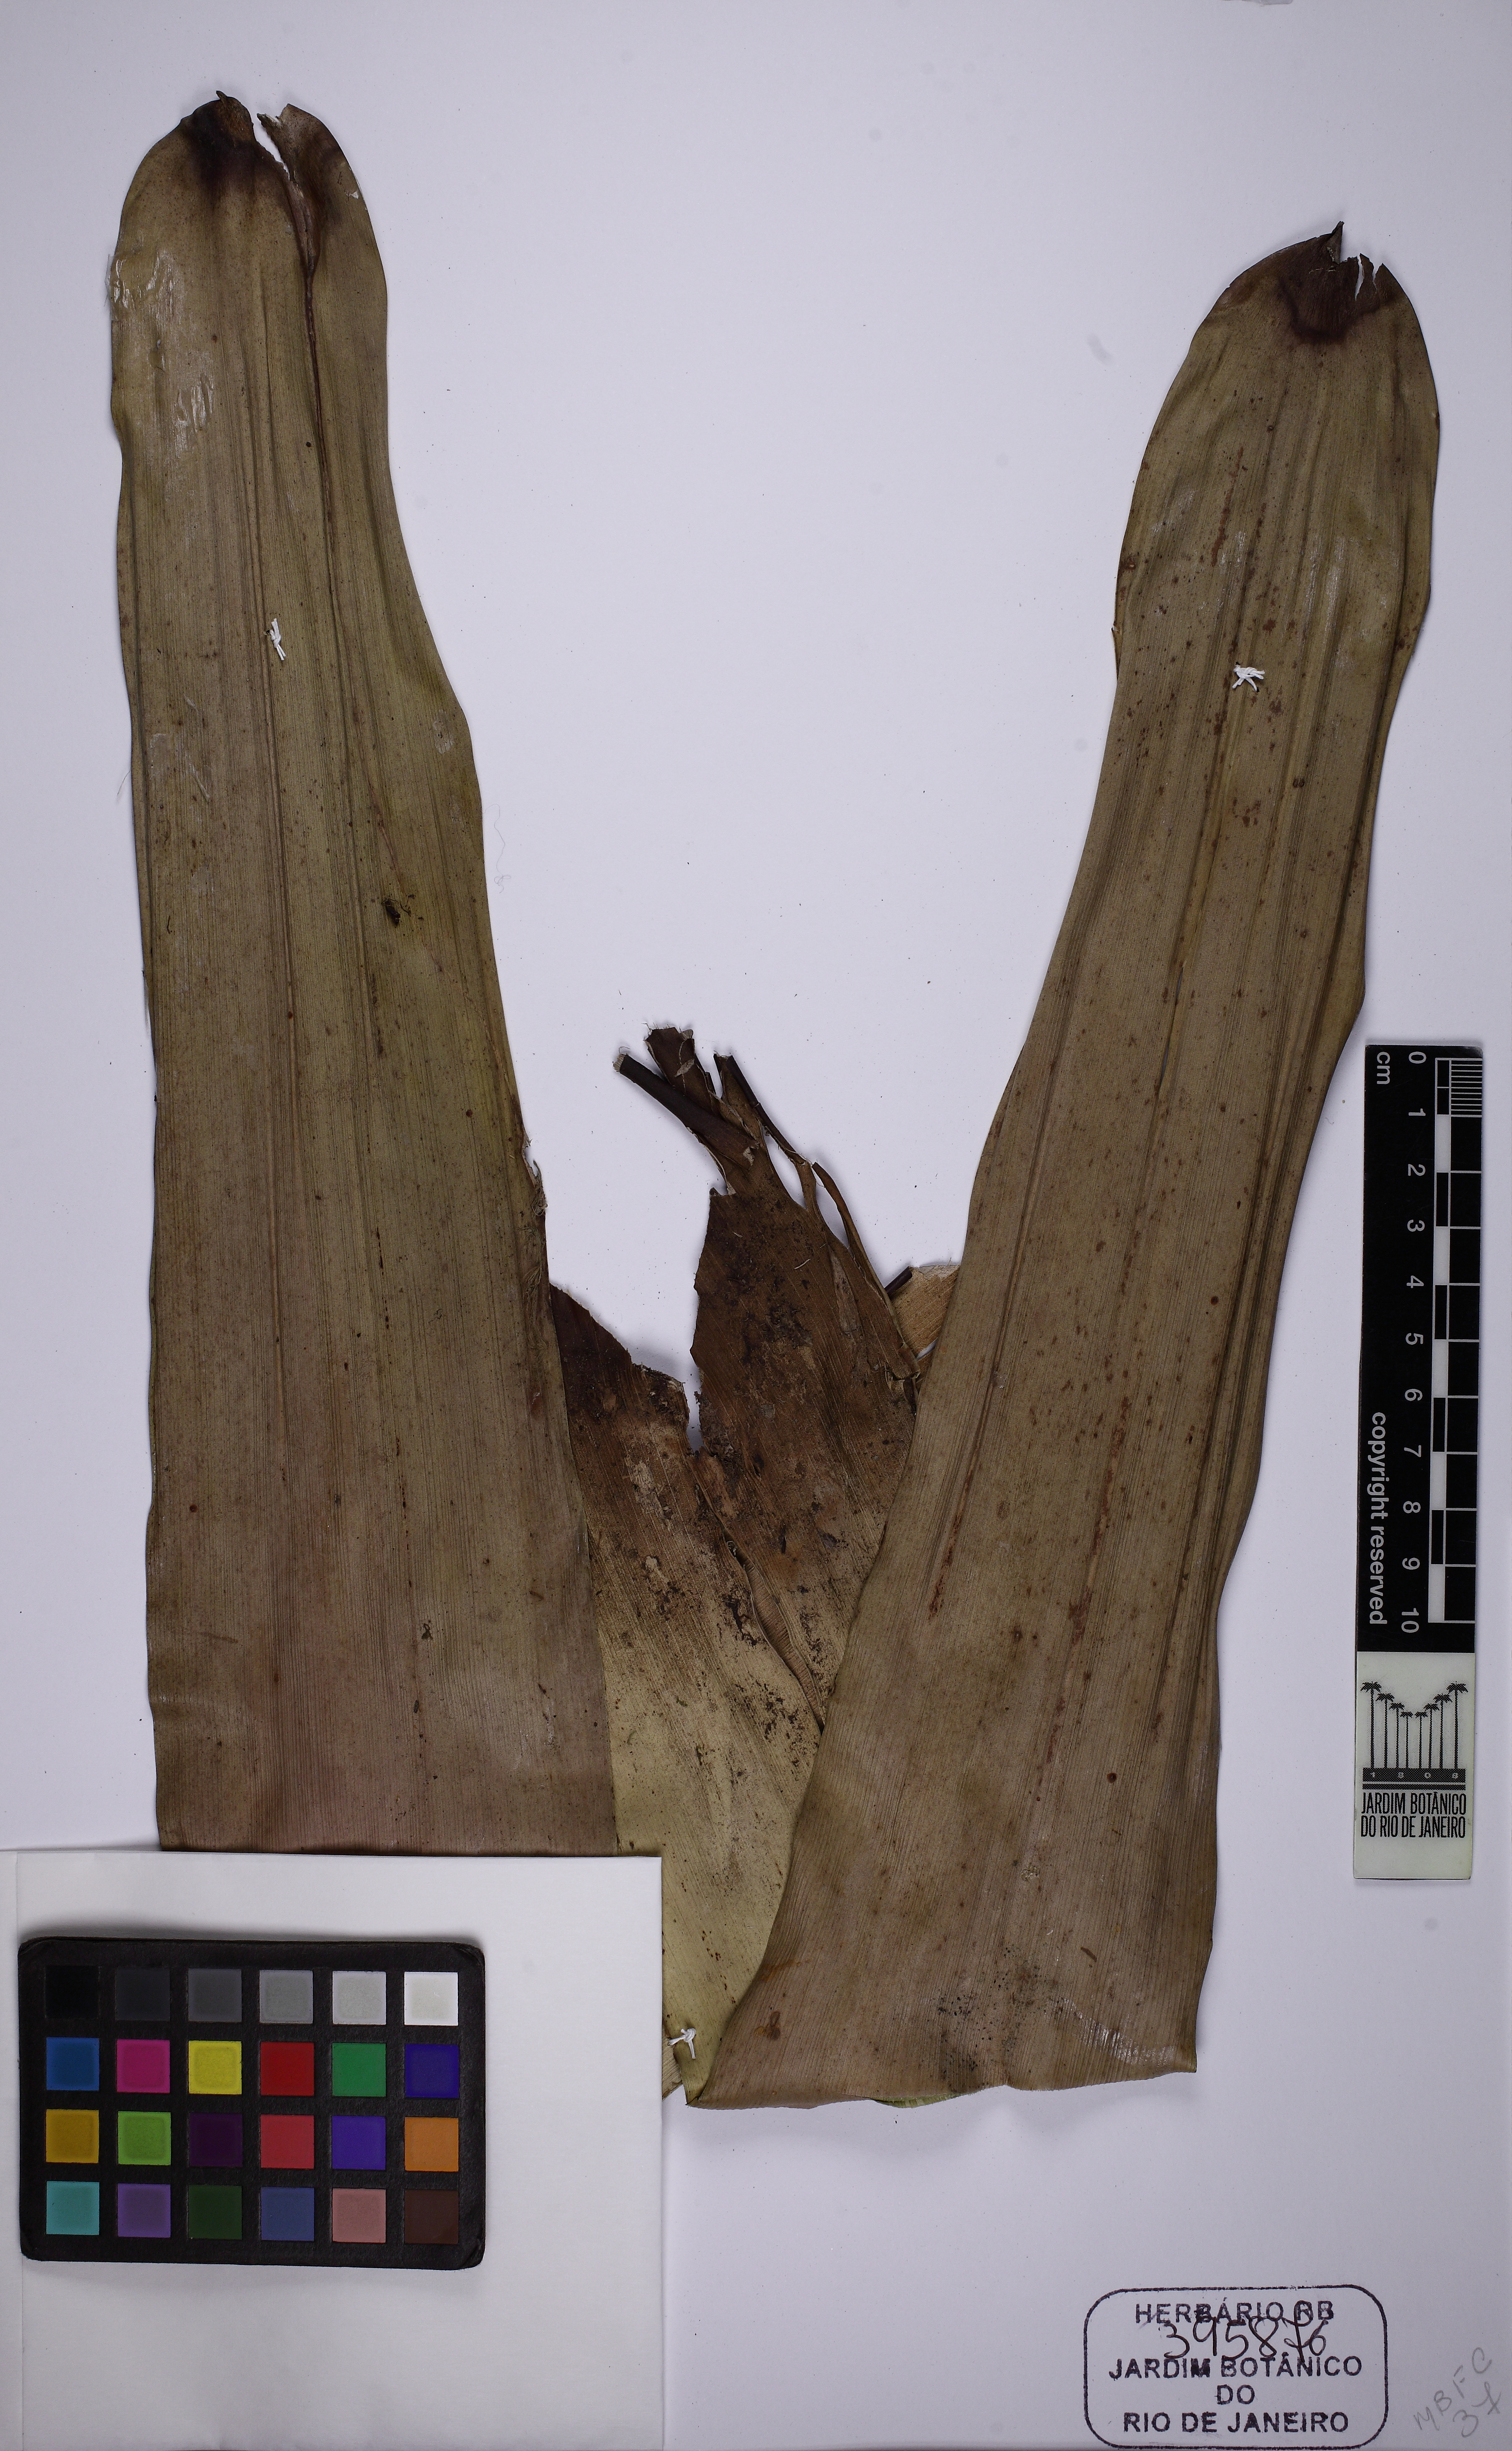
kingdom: Plantae
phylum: Tracheophyta
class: Liliopsida
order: Poales
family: Bromeliaceae
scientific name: Bromeliaceae
